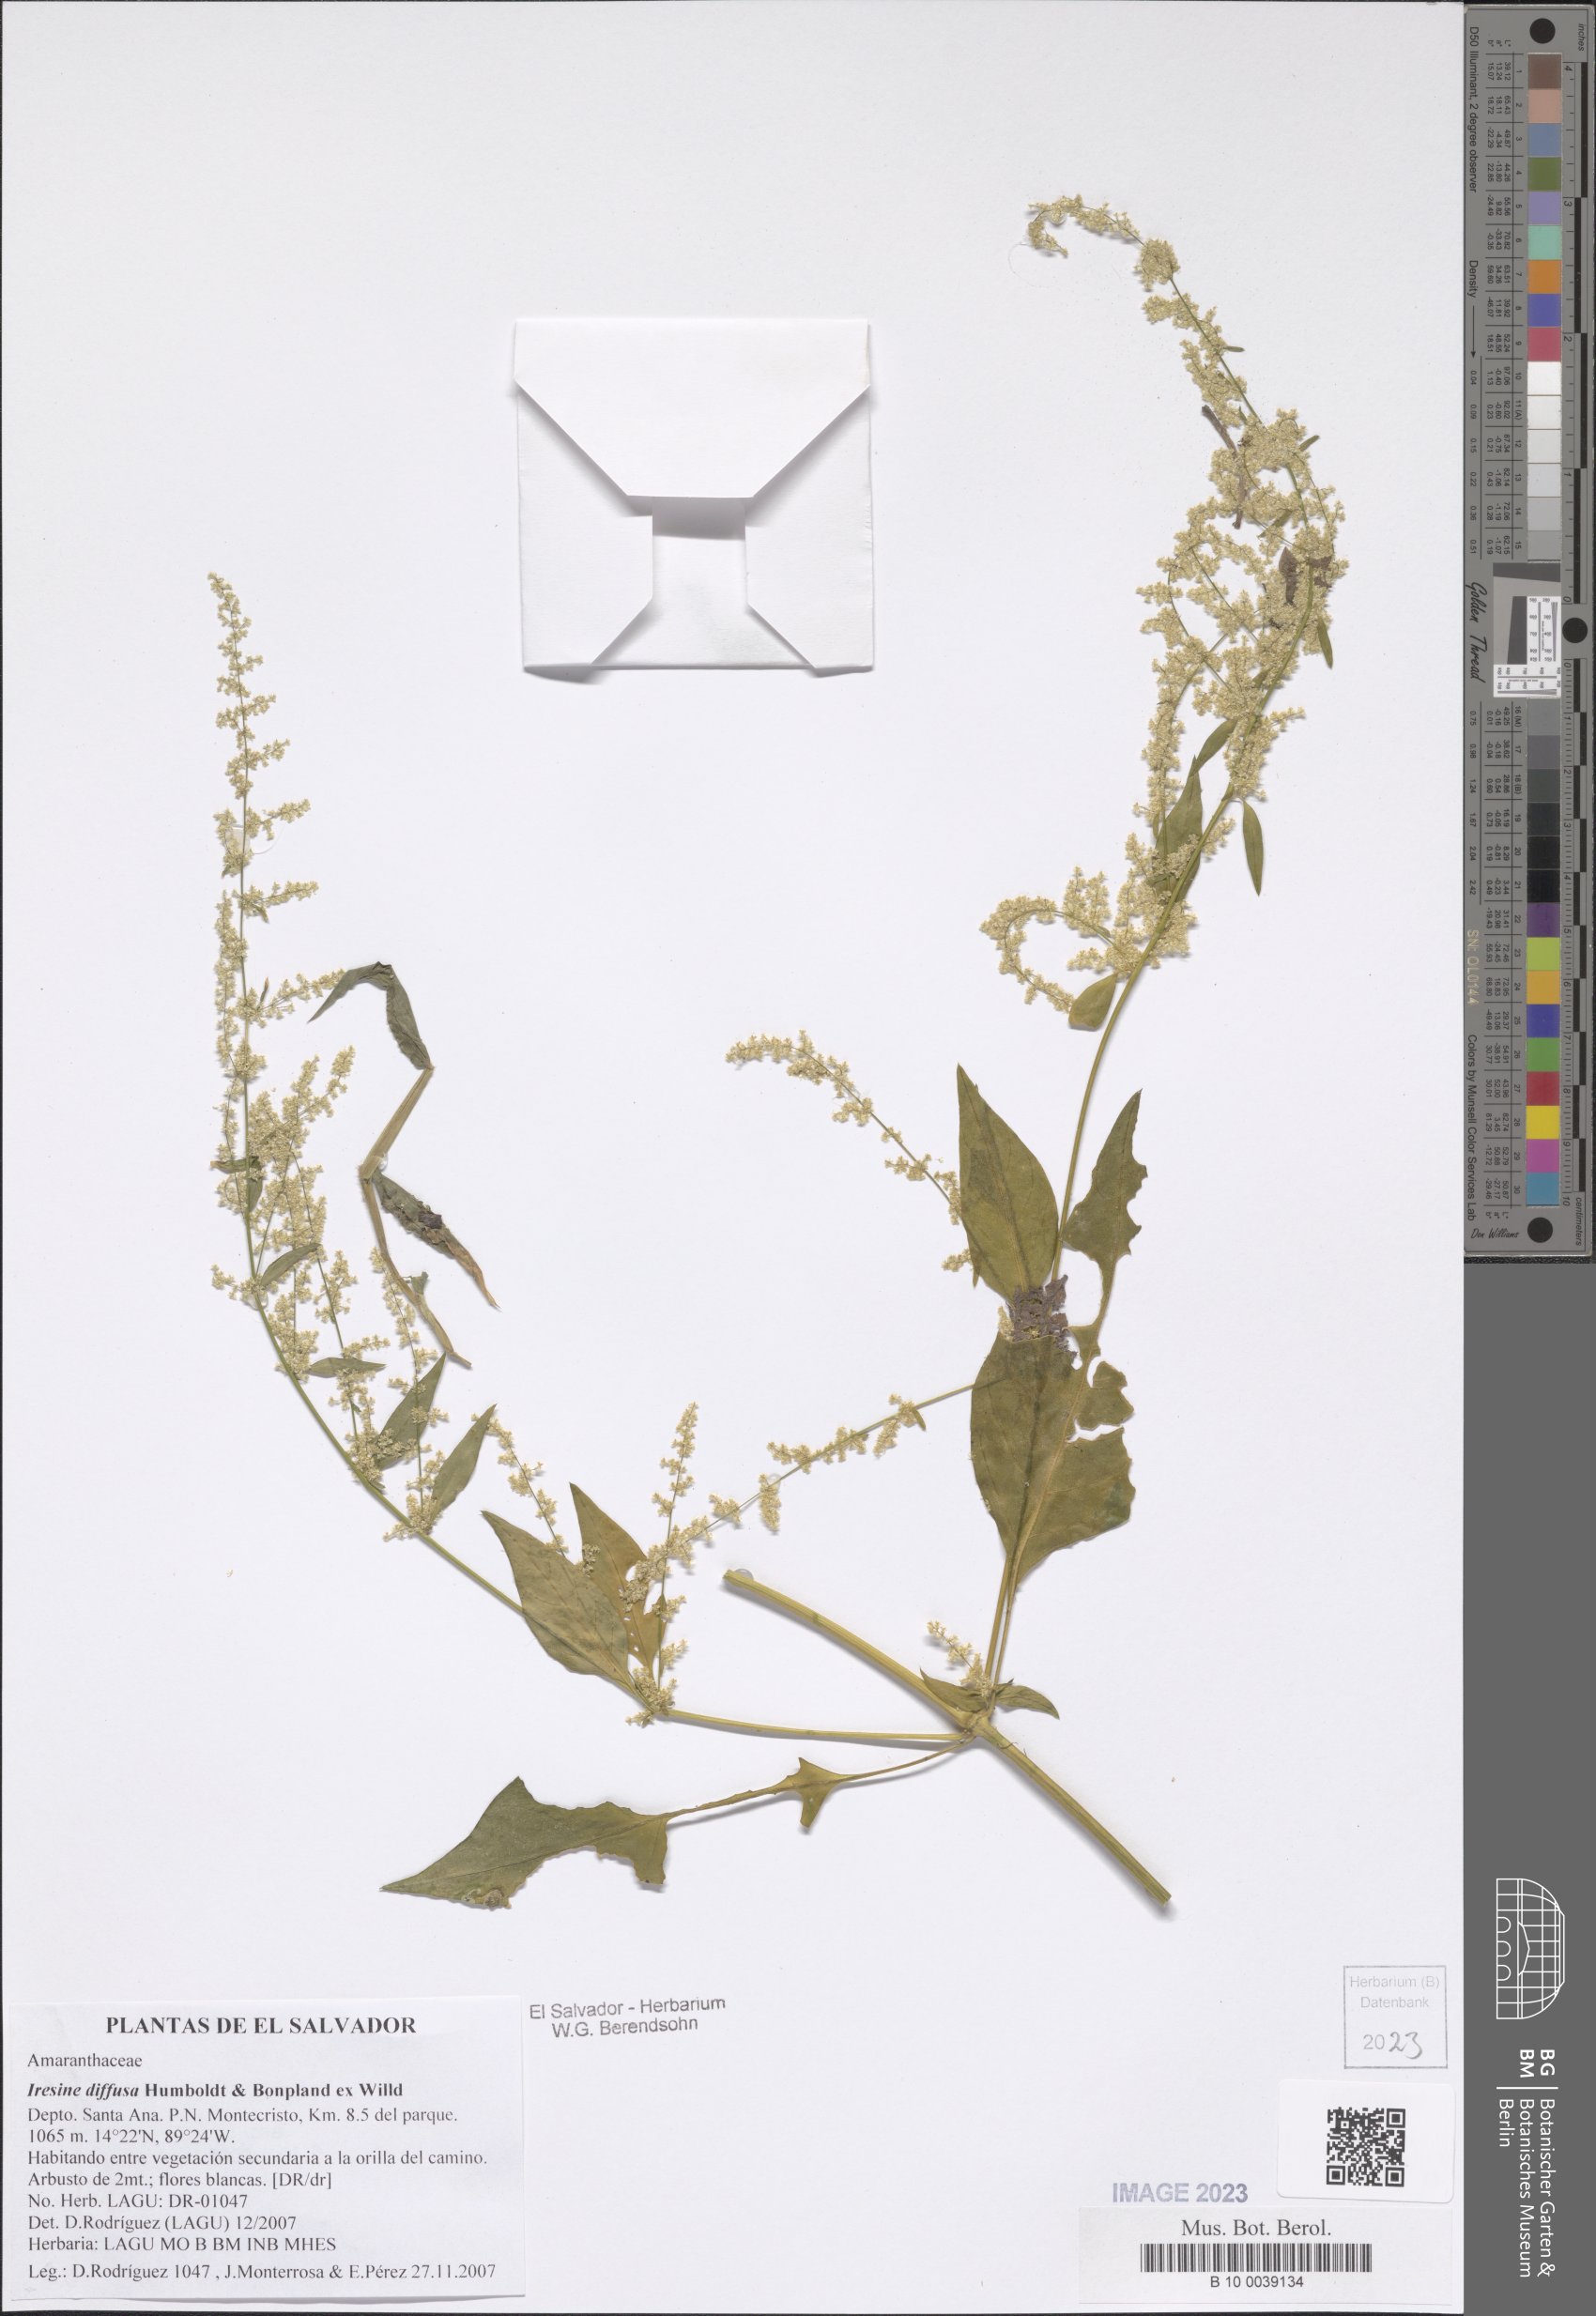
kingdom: Plantae
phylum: Tracheophyta
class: Magnoliopsida
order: Caryophyllales
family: Amaranthaceae
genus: Iresine
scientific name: Iresine diffusa
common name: Juba's-bush
